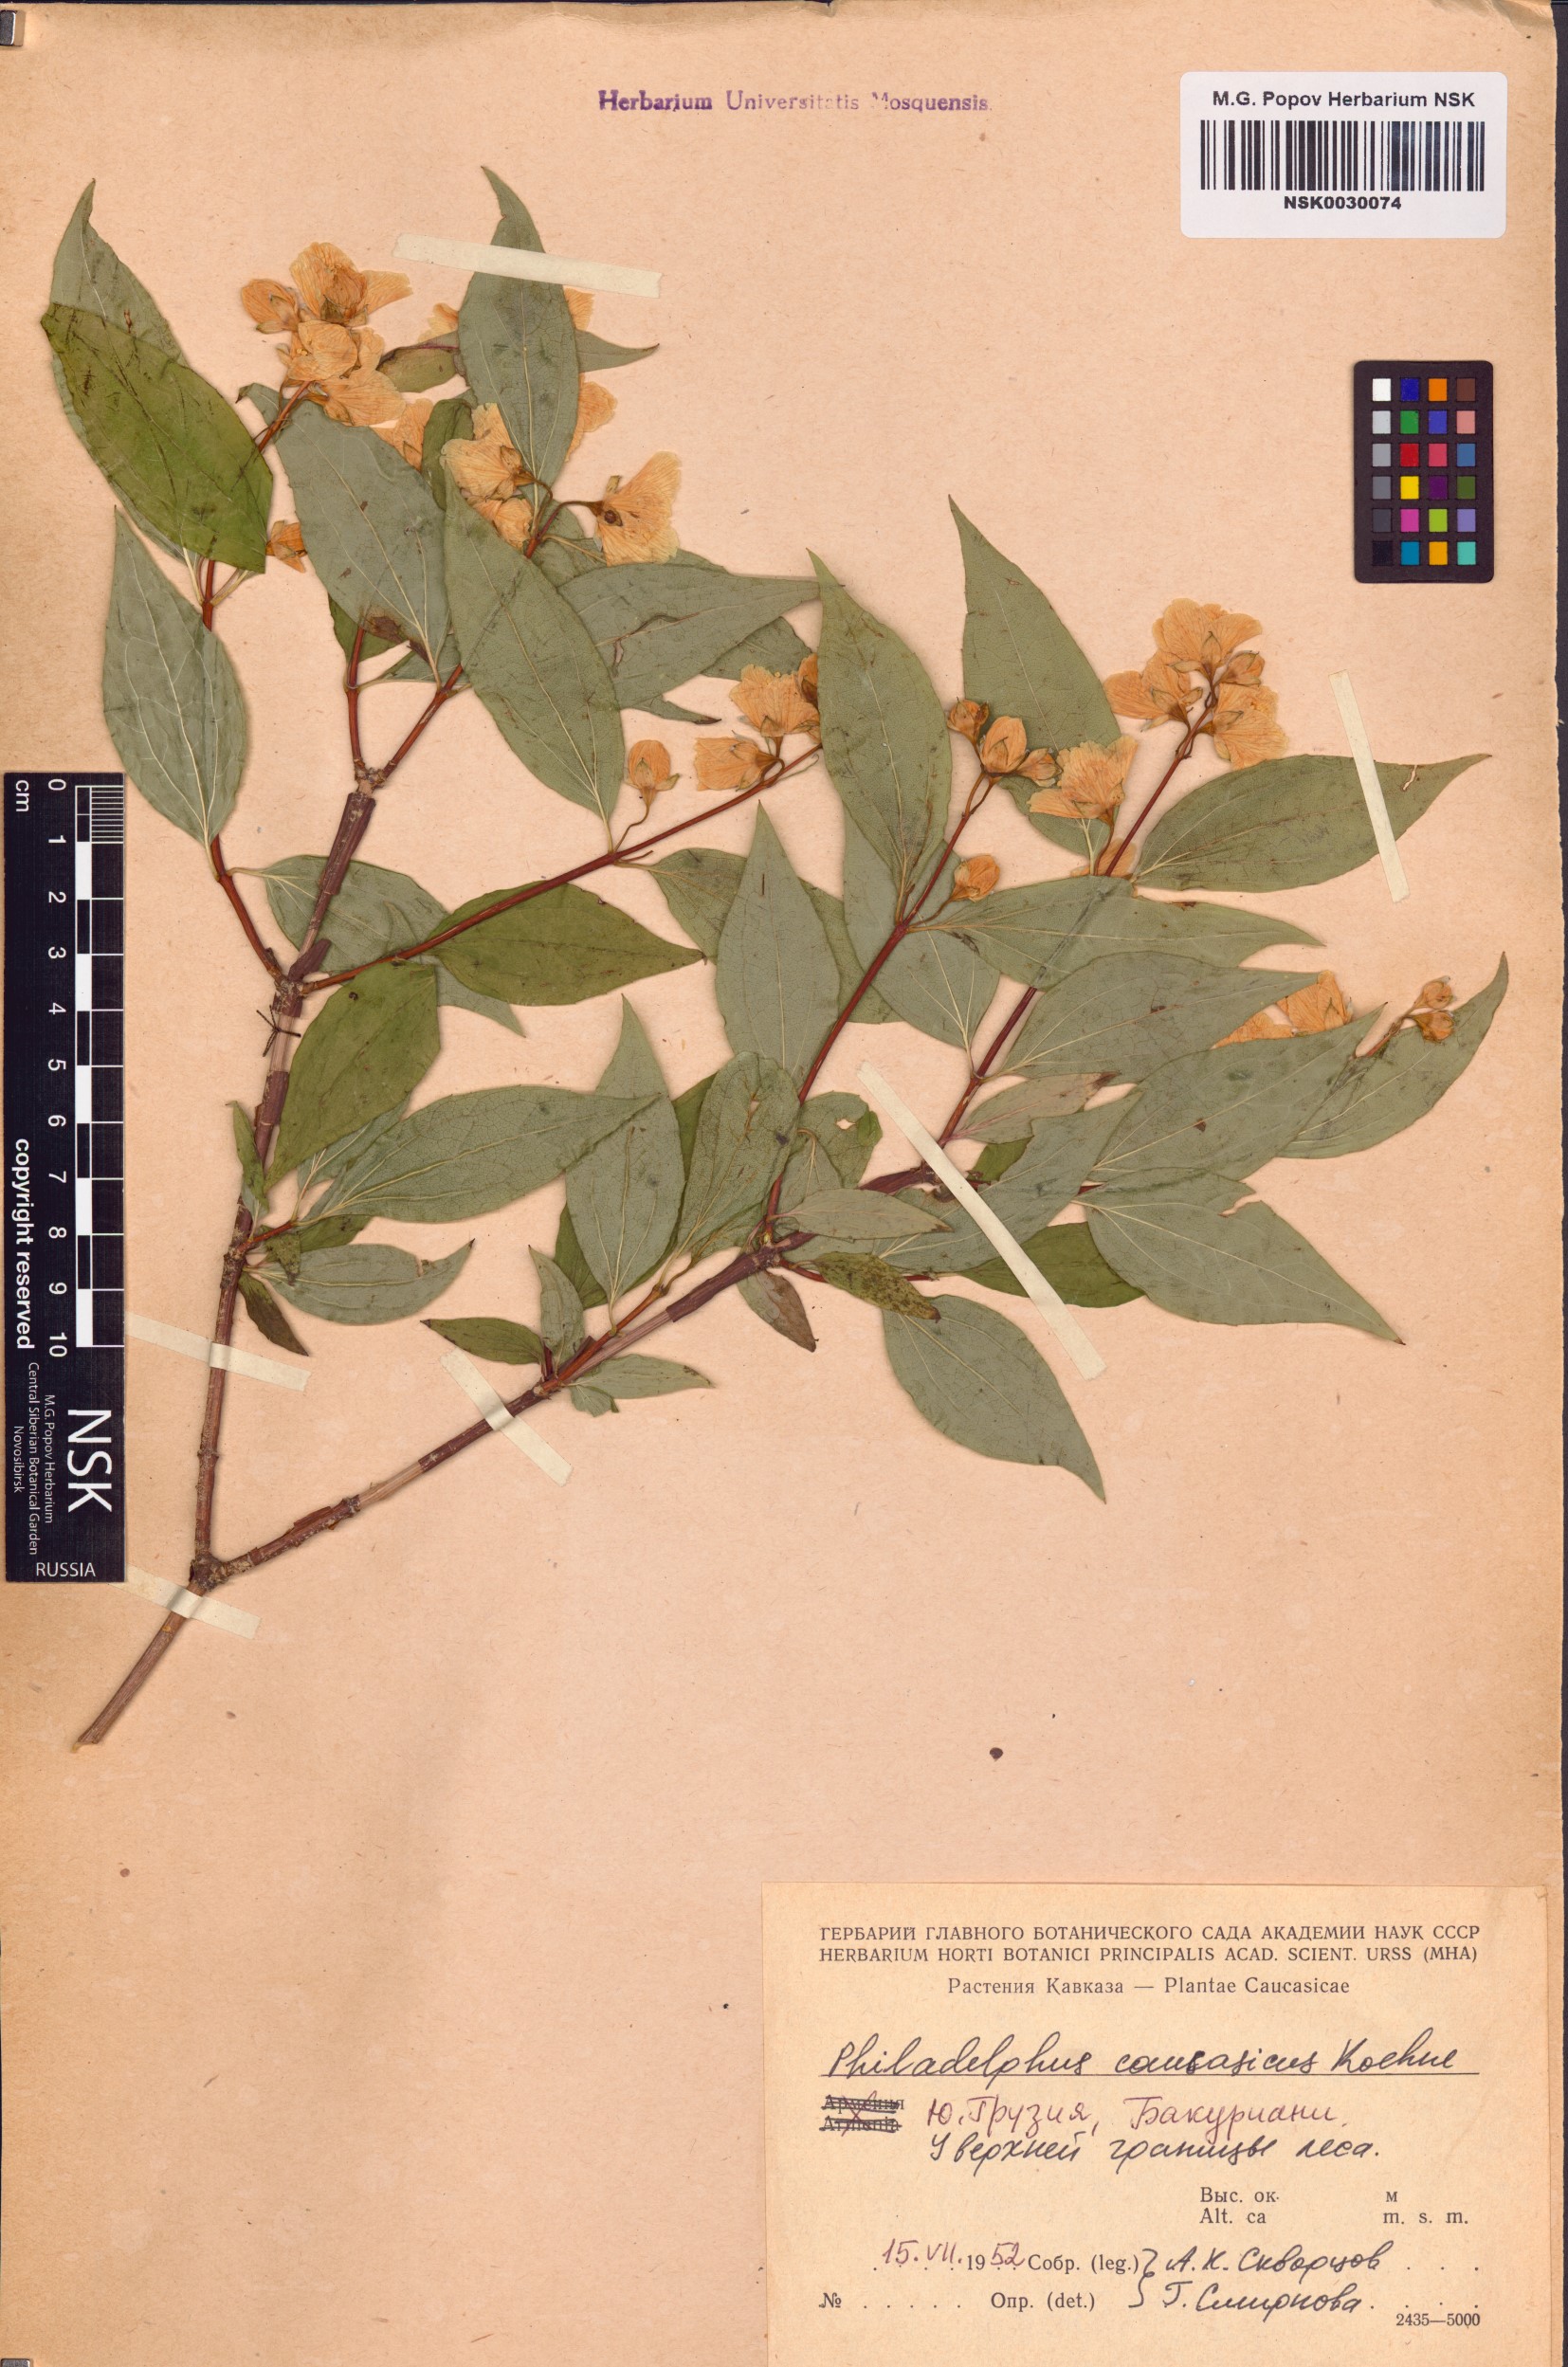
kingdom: Plantae
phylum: Tracheophyta
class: Magnoliopsida
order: Cornales
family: Hydrangeaceae
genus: Philadelphus
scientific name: Philadelphus coronarius
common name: Mock orange
